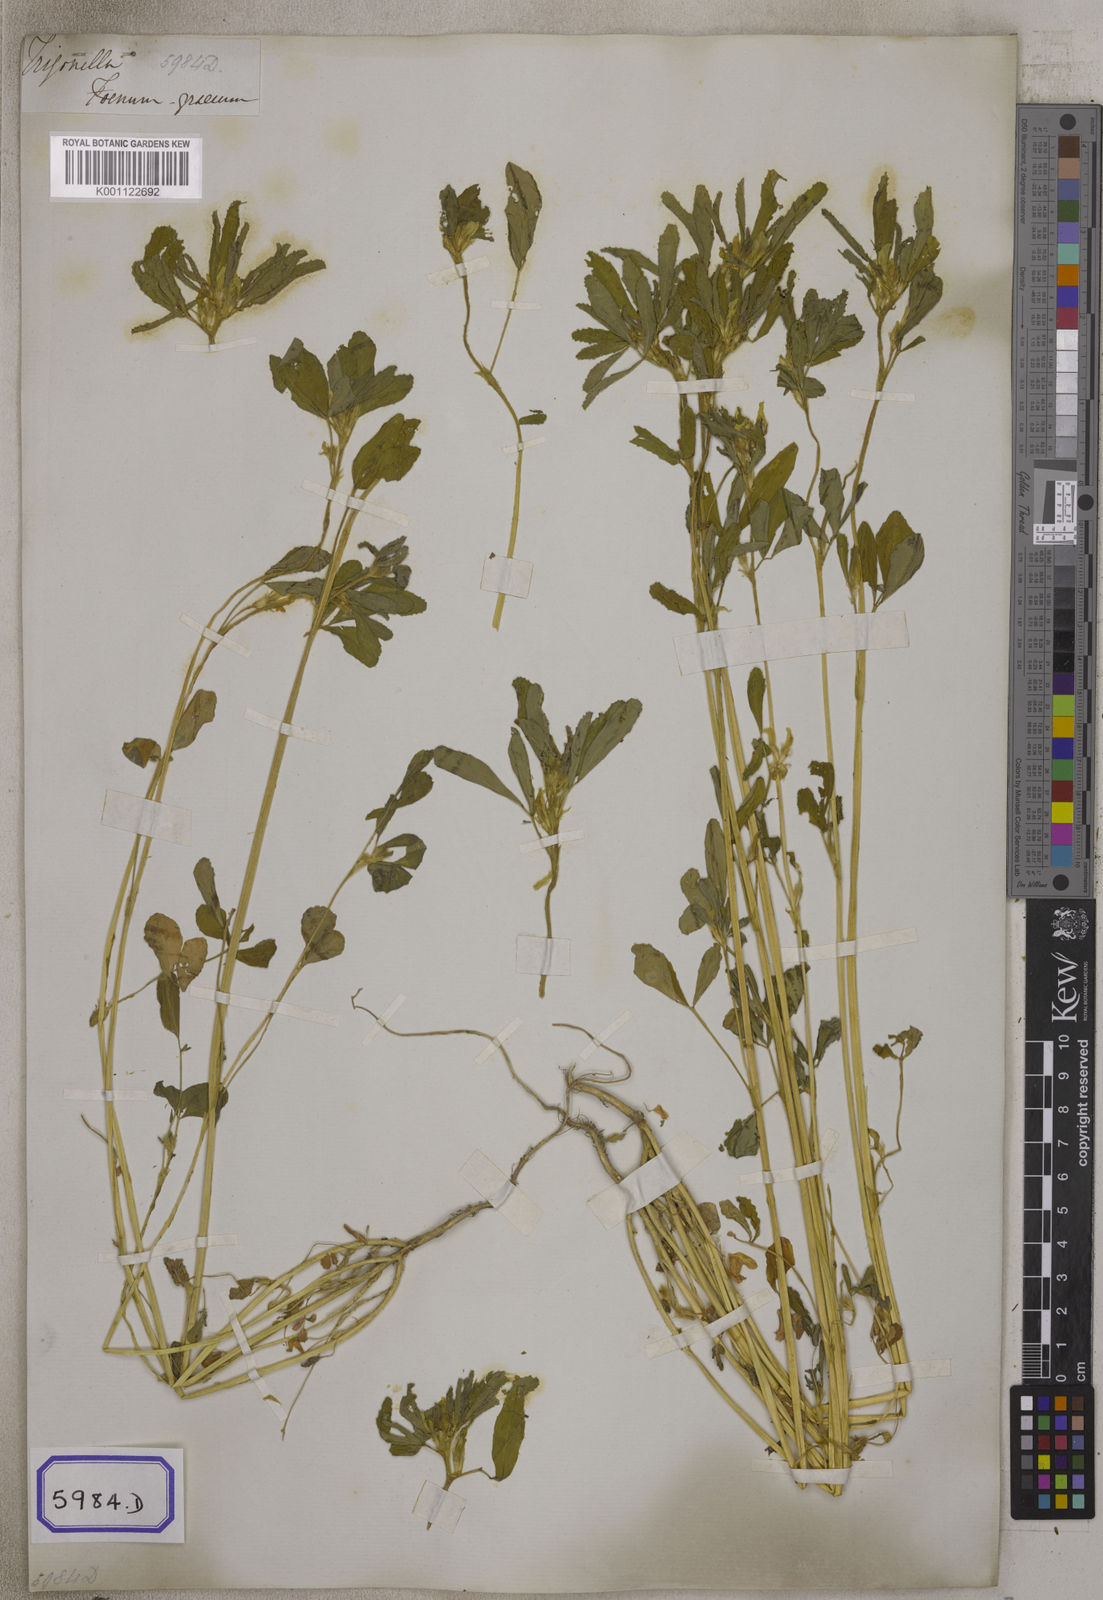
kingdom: Plantae
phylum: Tracheophyta
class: Magnoliopsida
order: Fabales
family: Fabaceae
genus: Trigonella
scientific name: Trigonella foenum-graecum
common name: Fenugreek
